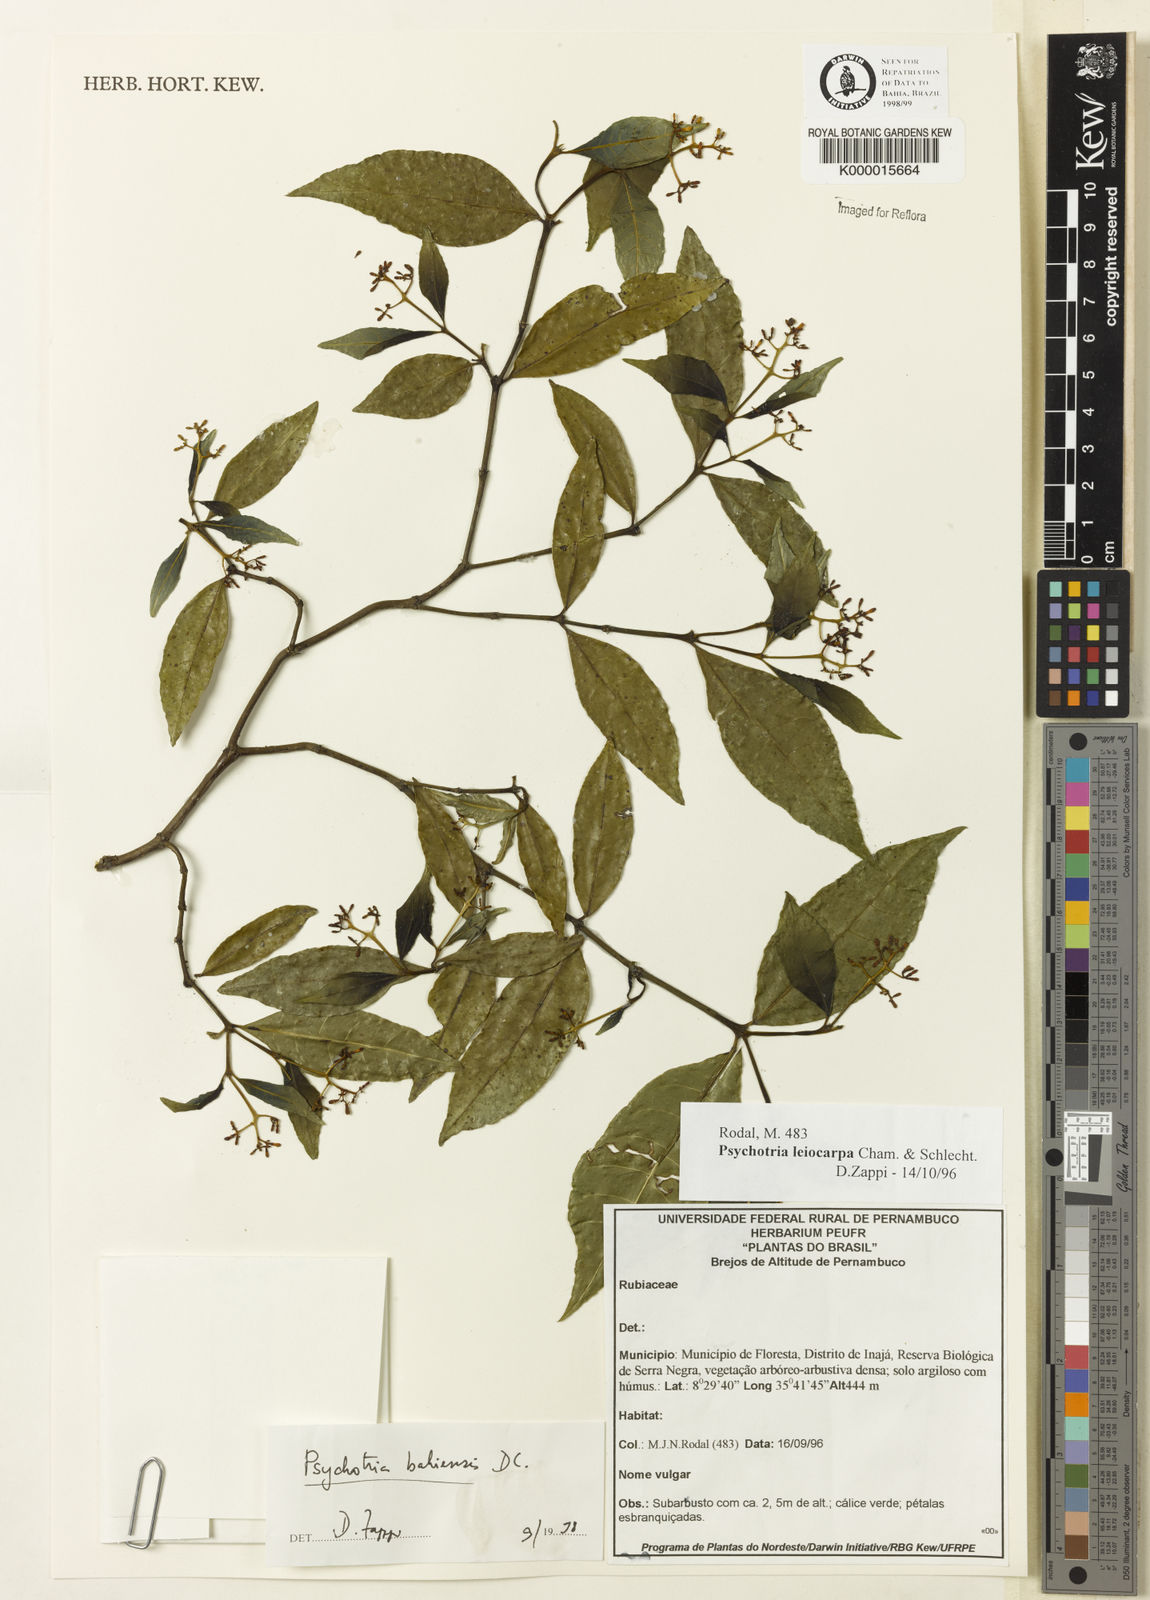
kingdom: Plantae
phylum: Tracheophyta
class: Magnoliopsida
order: Gentianales
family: Rubiaceae
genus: Psychotria
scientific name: Psychotria bahiensis
